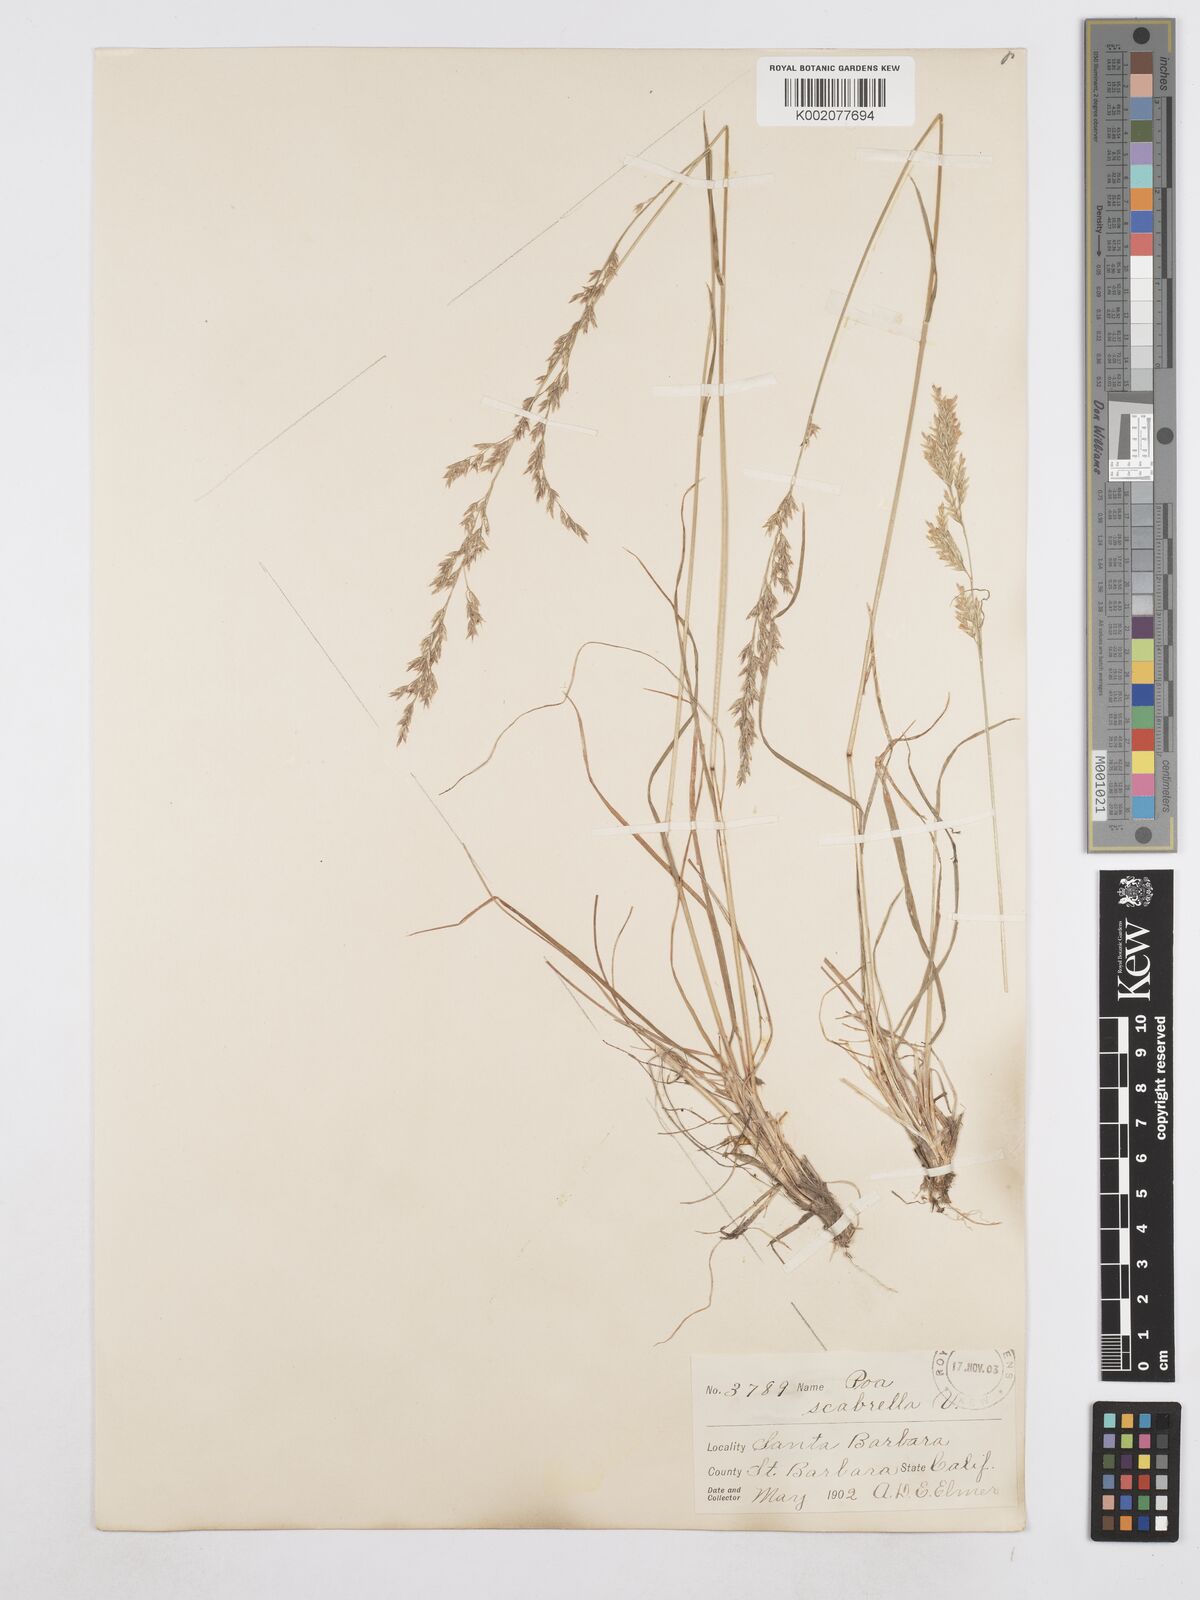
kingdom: Plantae
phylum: Tracheophyta
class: Liliopsida
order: Poales
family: Poaceae
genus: Poa
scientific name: Poa secunda
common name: Sandberg bluegrass
